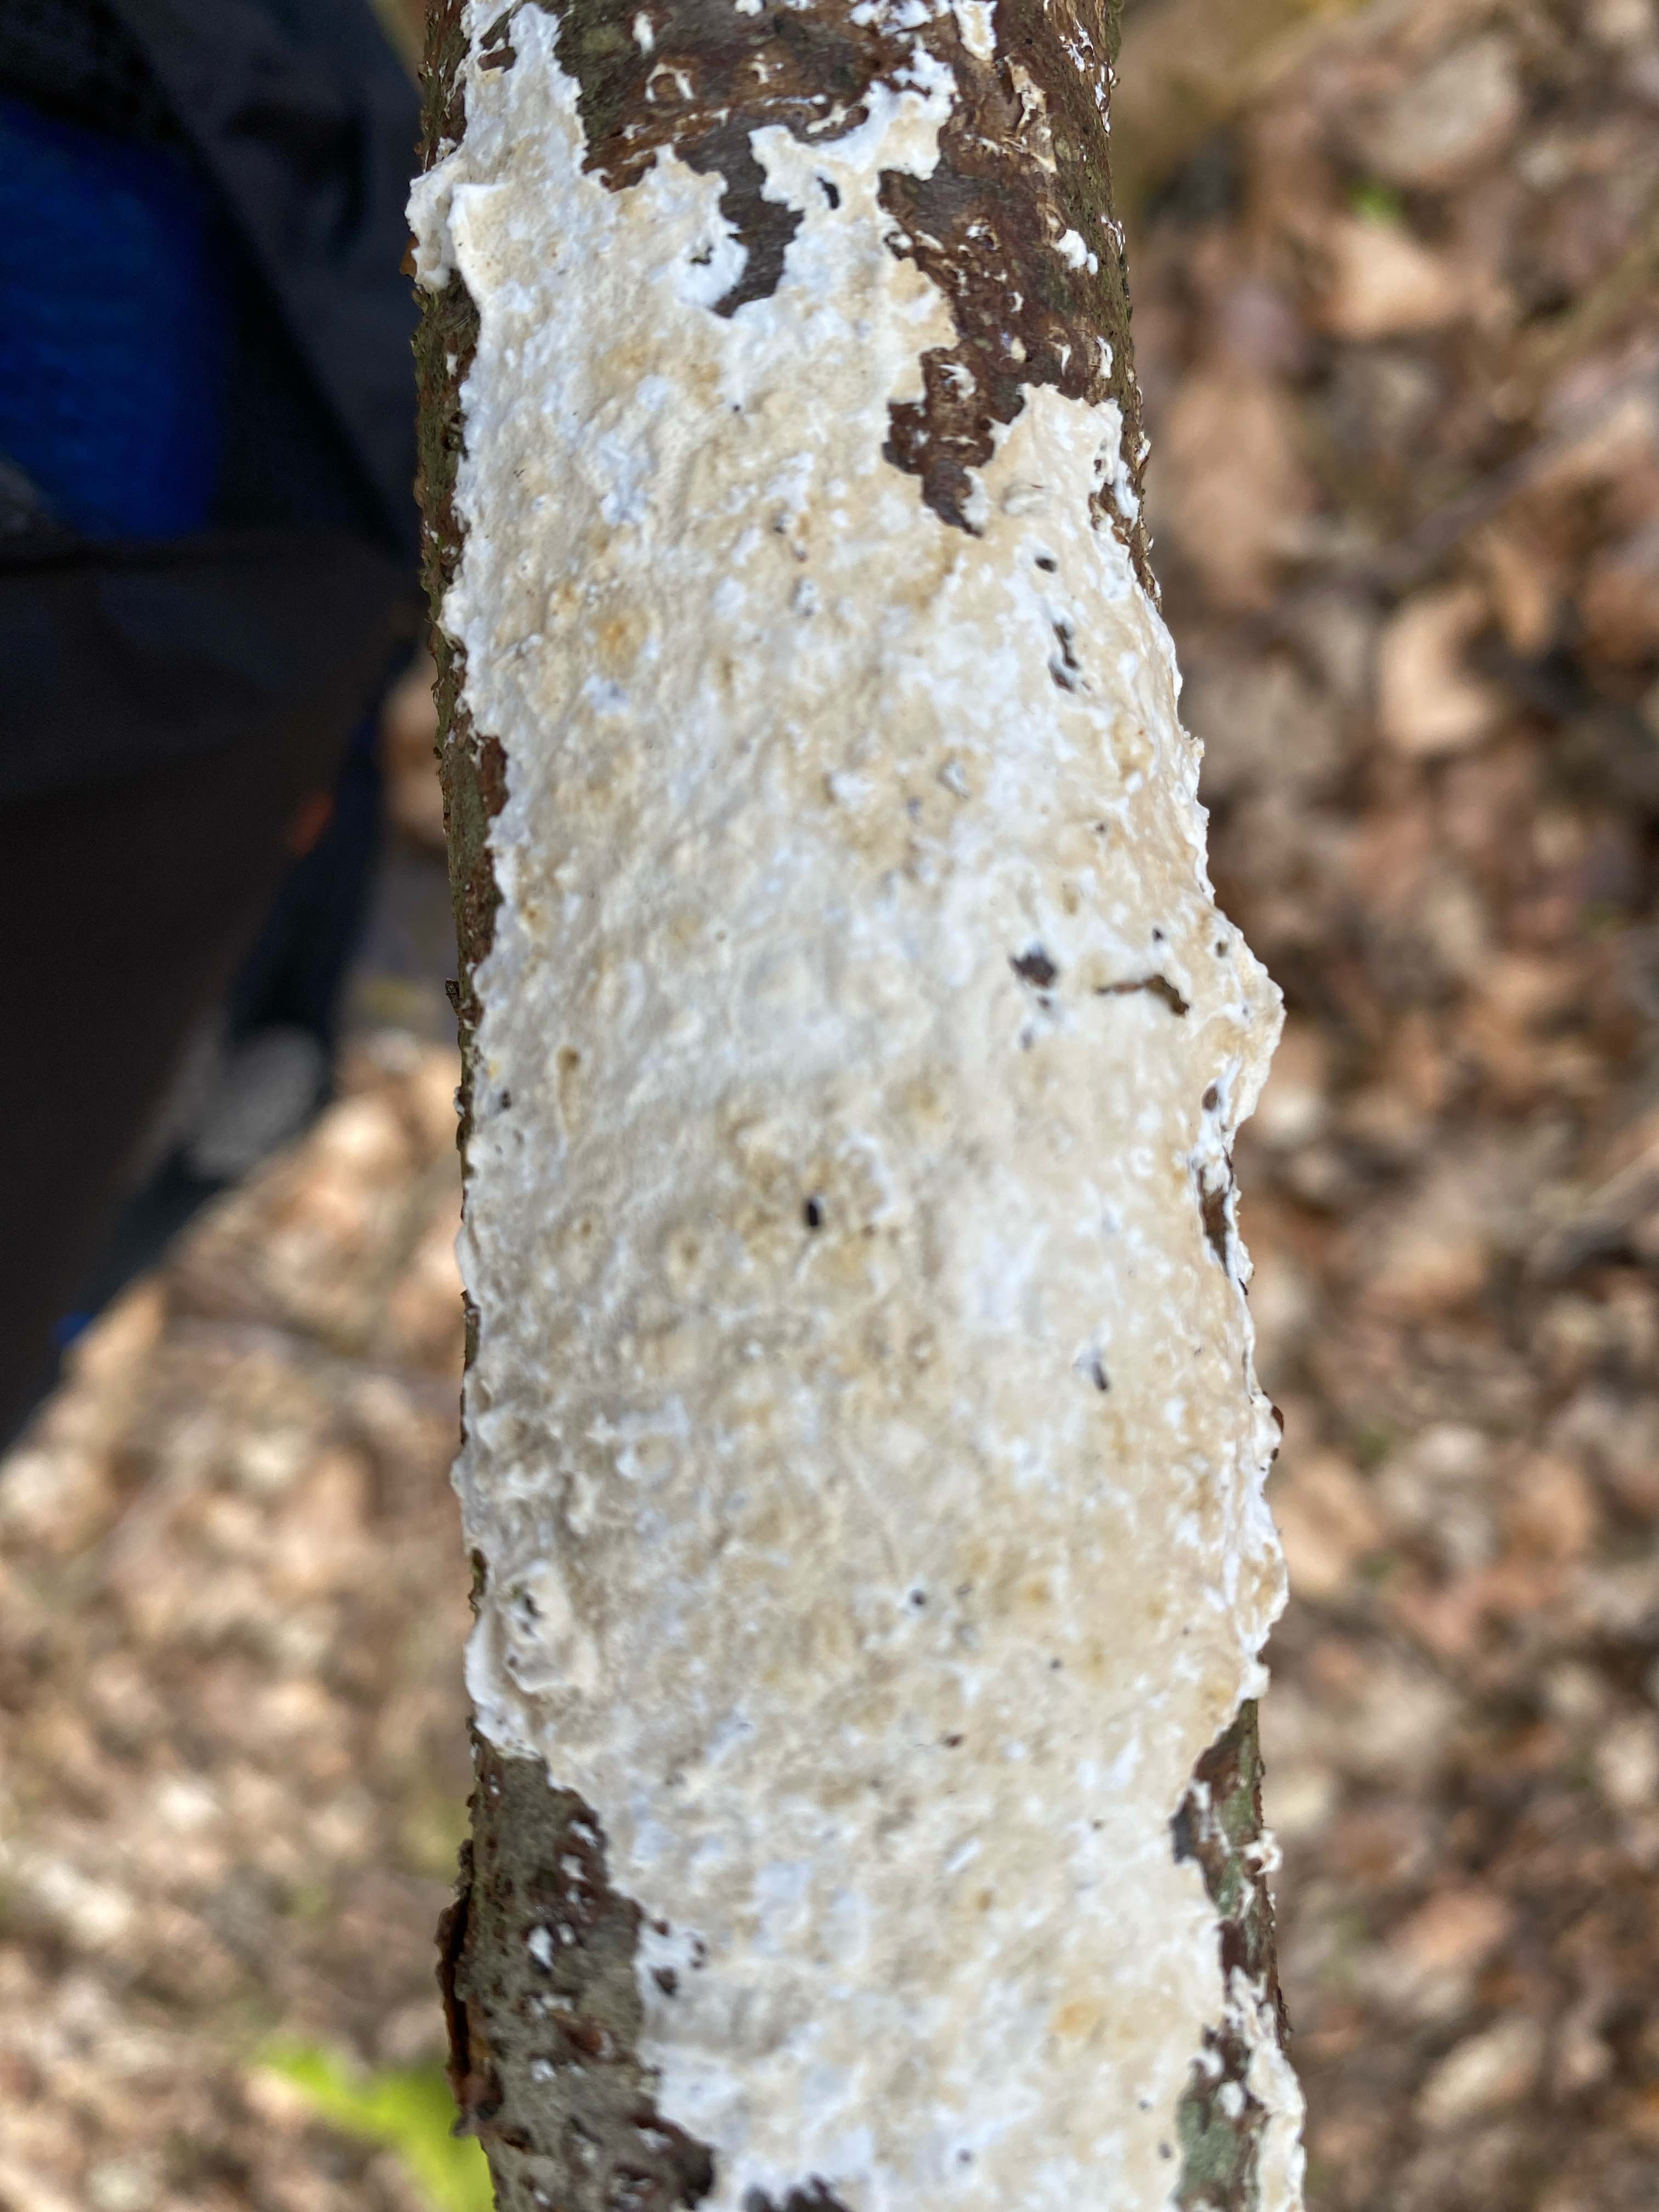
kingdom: Fungi
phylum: Basidiomycota
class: Agaricomycetes
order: Polyporales
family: Irpicaceae
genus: Byssomerulius
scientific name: Byssomerulius corium
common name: læder-åresvamp
